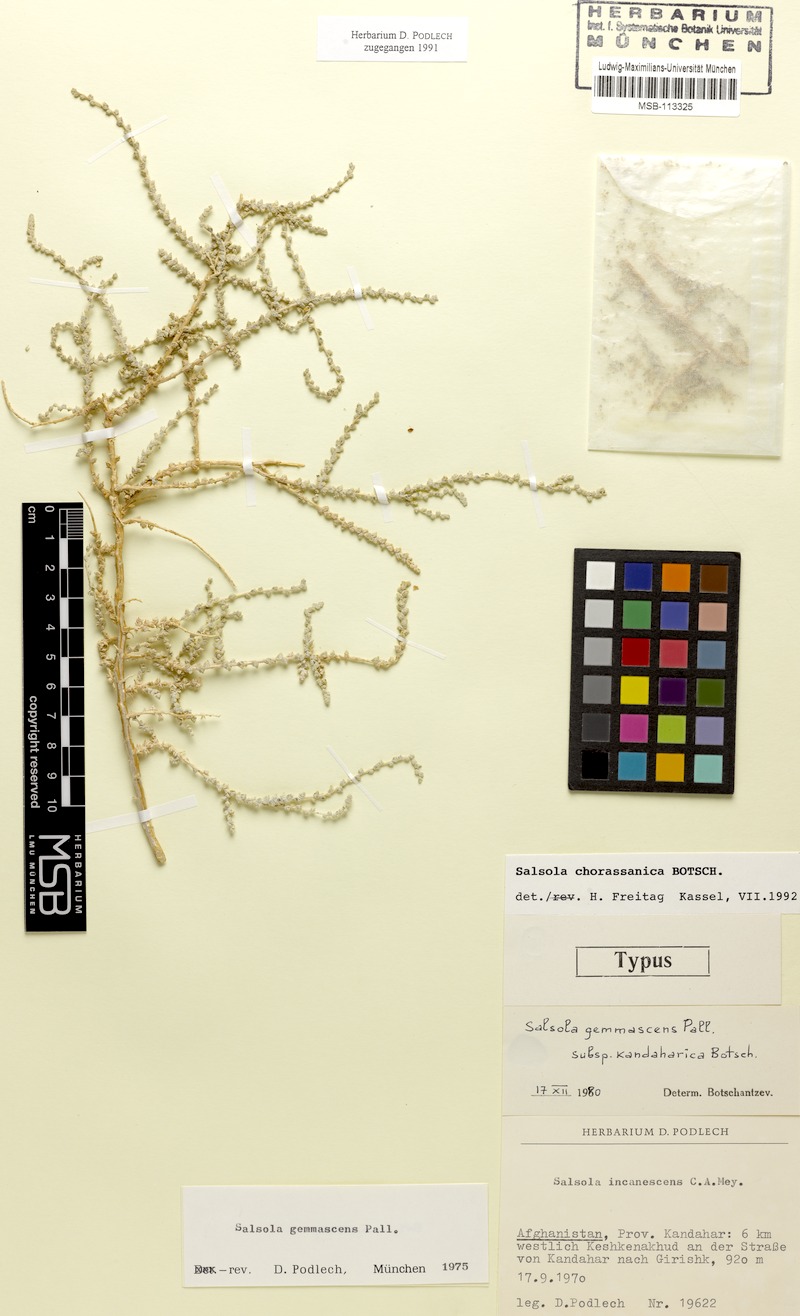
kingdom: Plantae
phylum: Tracheophyta
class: Magnoliopsida
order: Caryophyllales
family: Amaranthaceae
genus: Caroxylon
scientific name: Caroxylon chorassanicum
